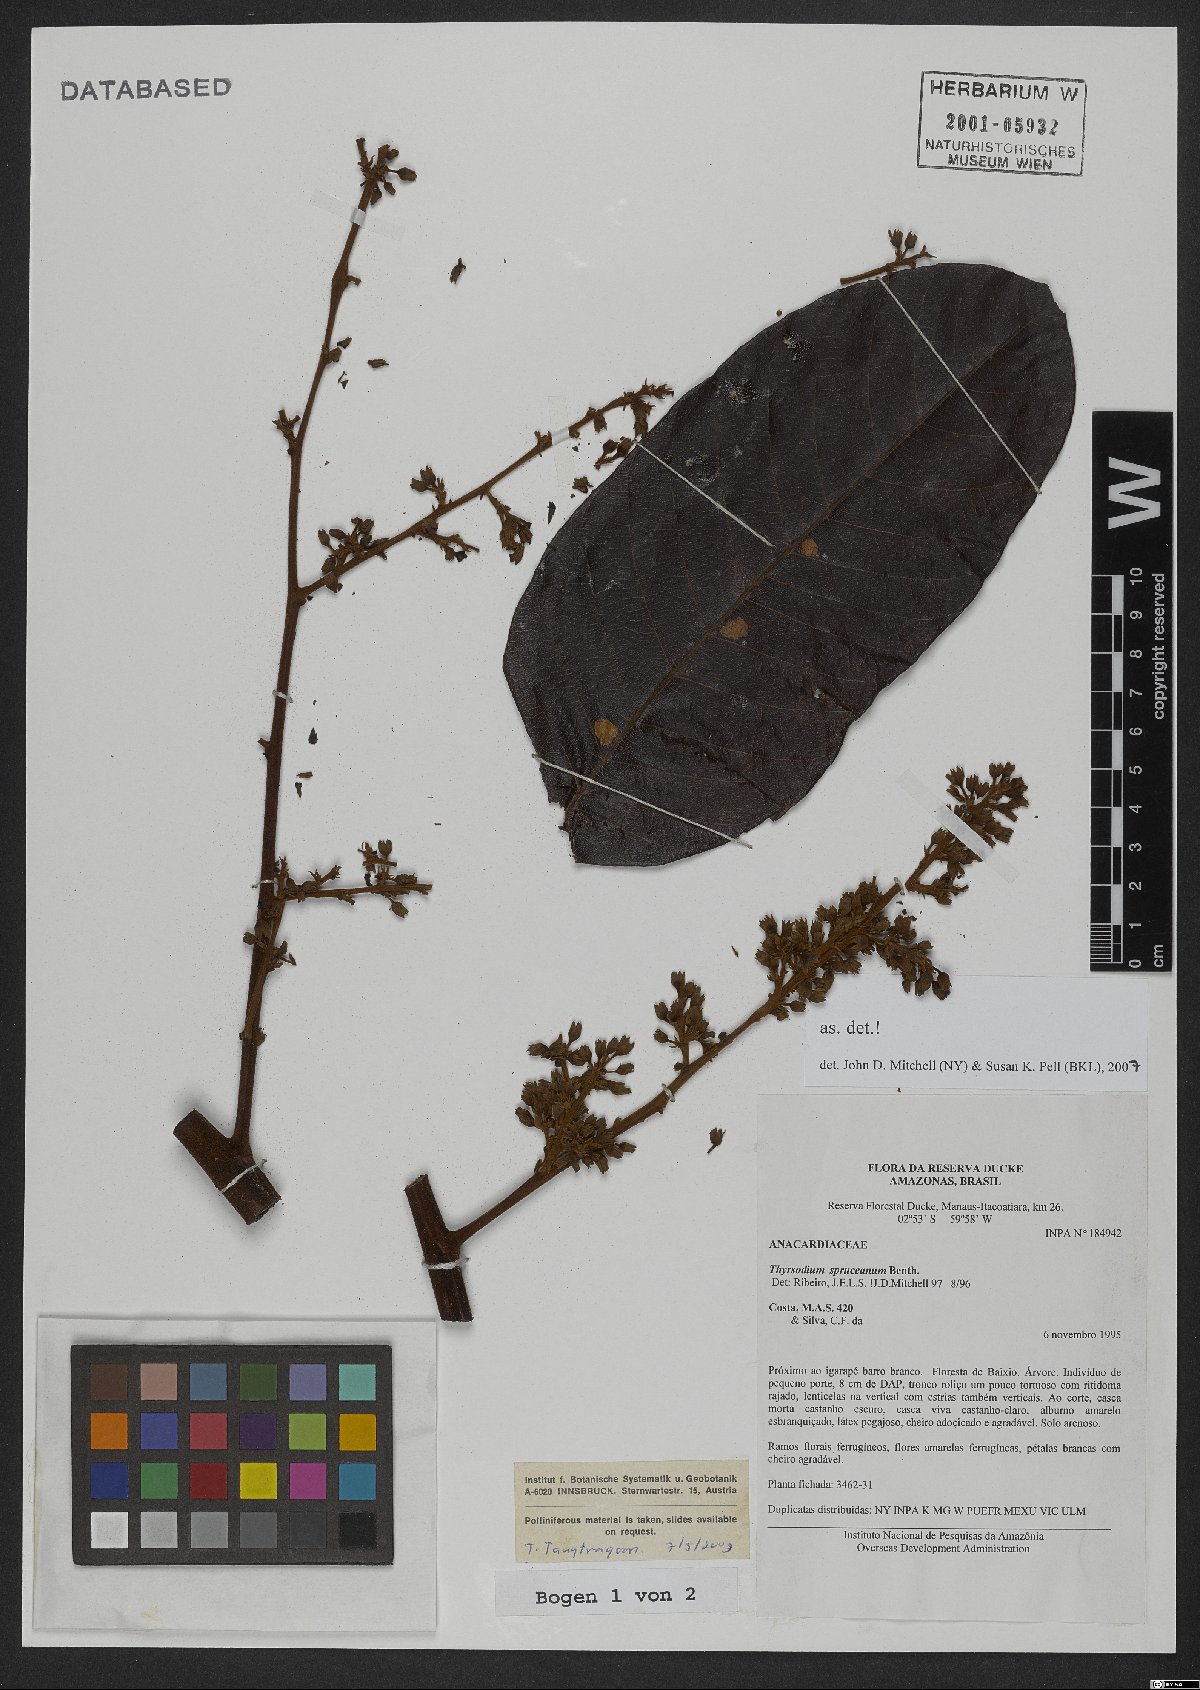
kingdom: Plantae
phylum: Tracheophyta
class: Magnoliopsida
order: Sapindales
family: Anacardiaceae
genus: Thyrsodium
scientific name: Thyrsodium spruceanum
